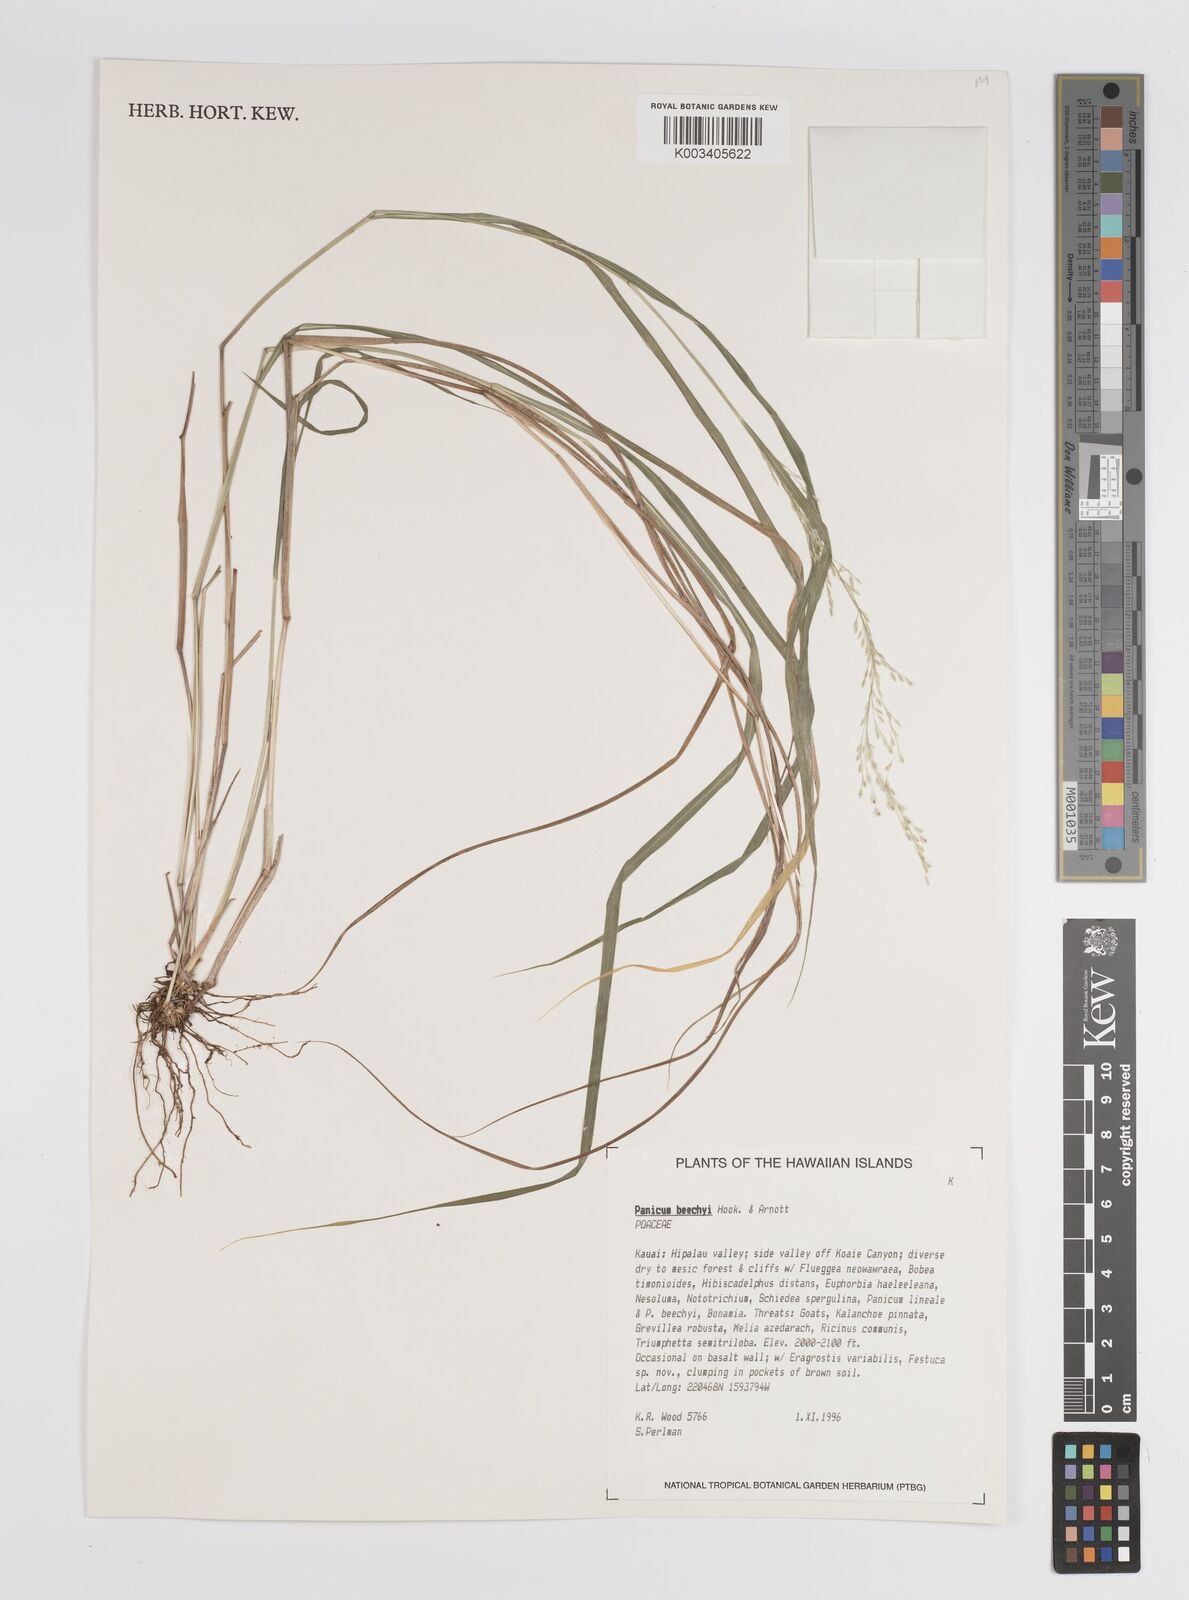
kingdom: Plantae
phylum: Tracheophyta
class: Liliopsida
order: Poales
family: Poaceae
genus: Panicum
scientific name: Panicum beecheyi
